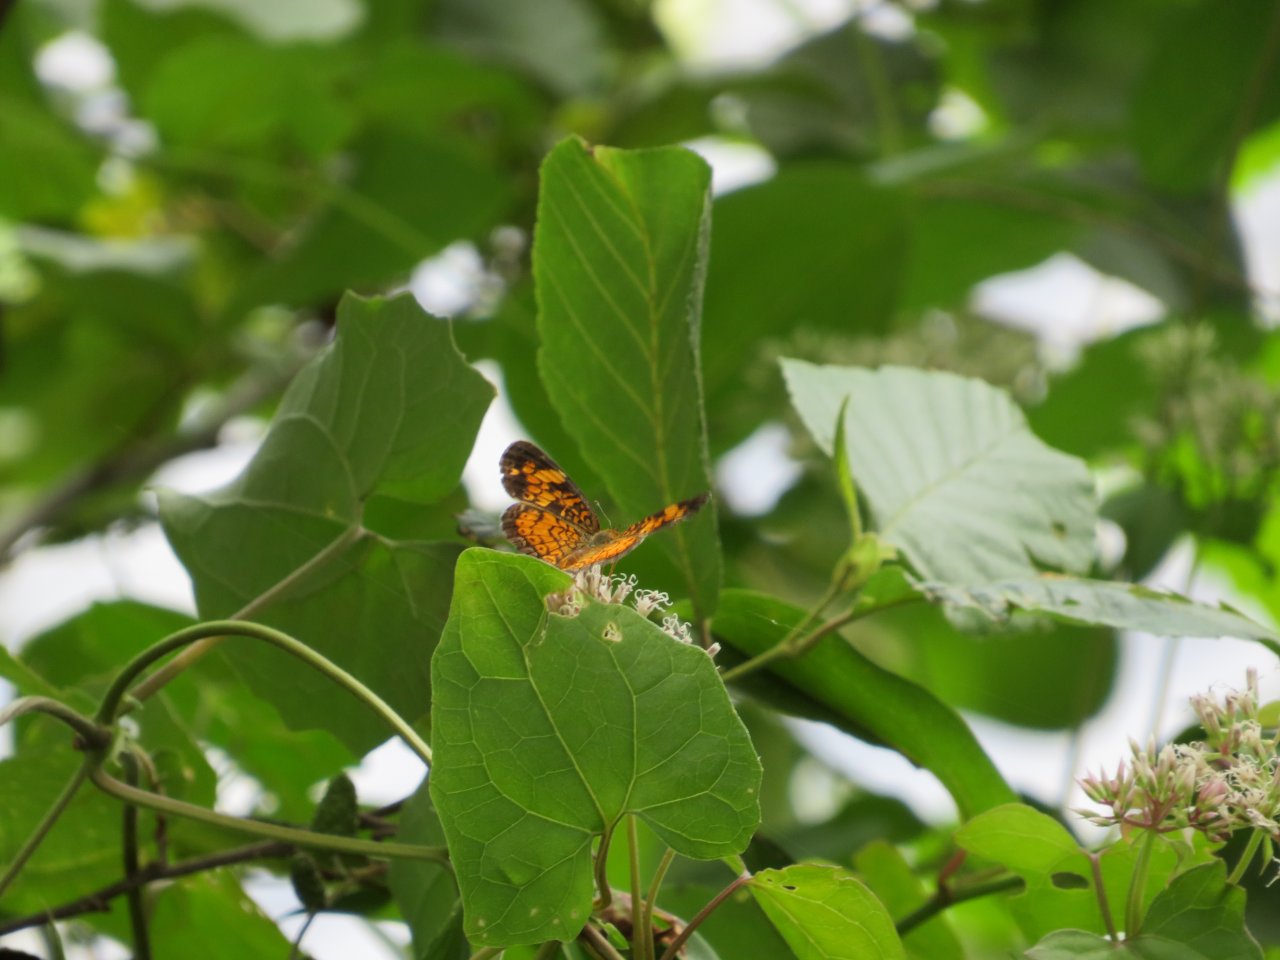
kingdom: Animalia
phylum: Arthropoda
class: Insecta
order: Lepidoptera
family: Nymphalidae
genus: Phyciodes
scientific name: Phyciodes tharos
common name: Pearl Crescent
